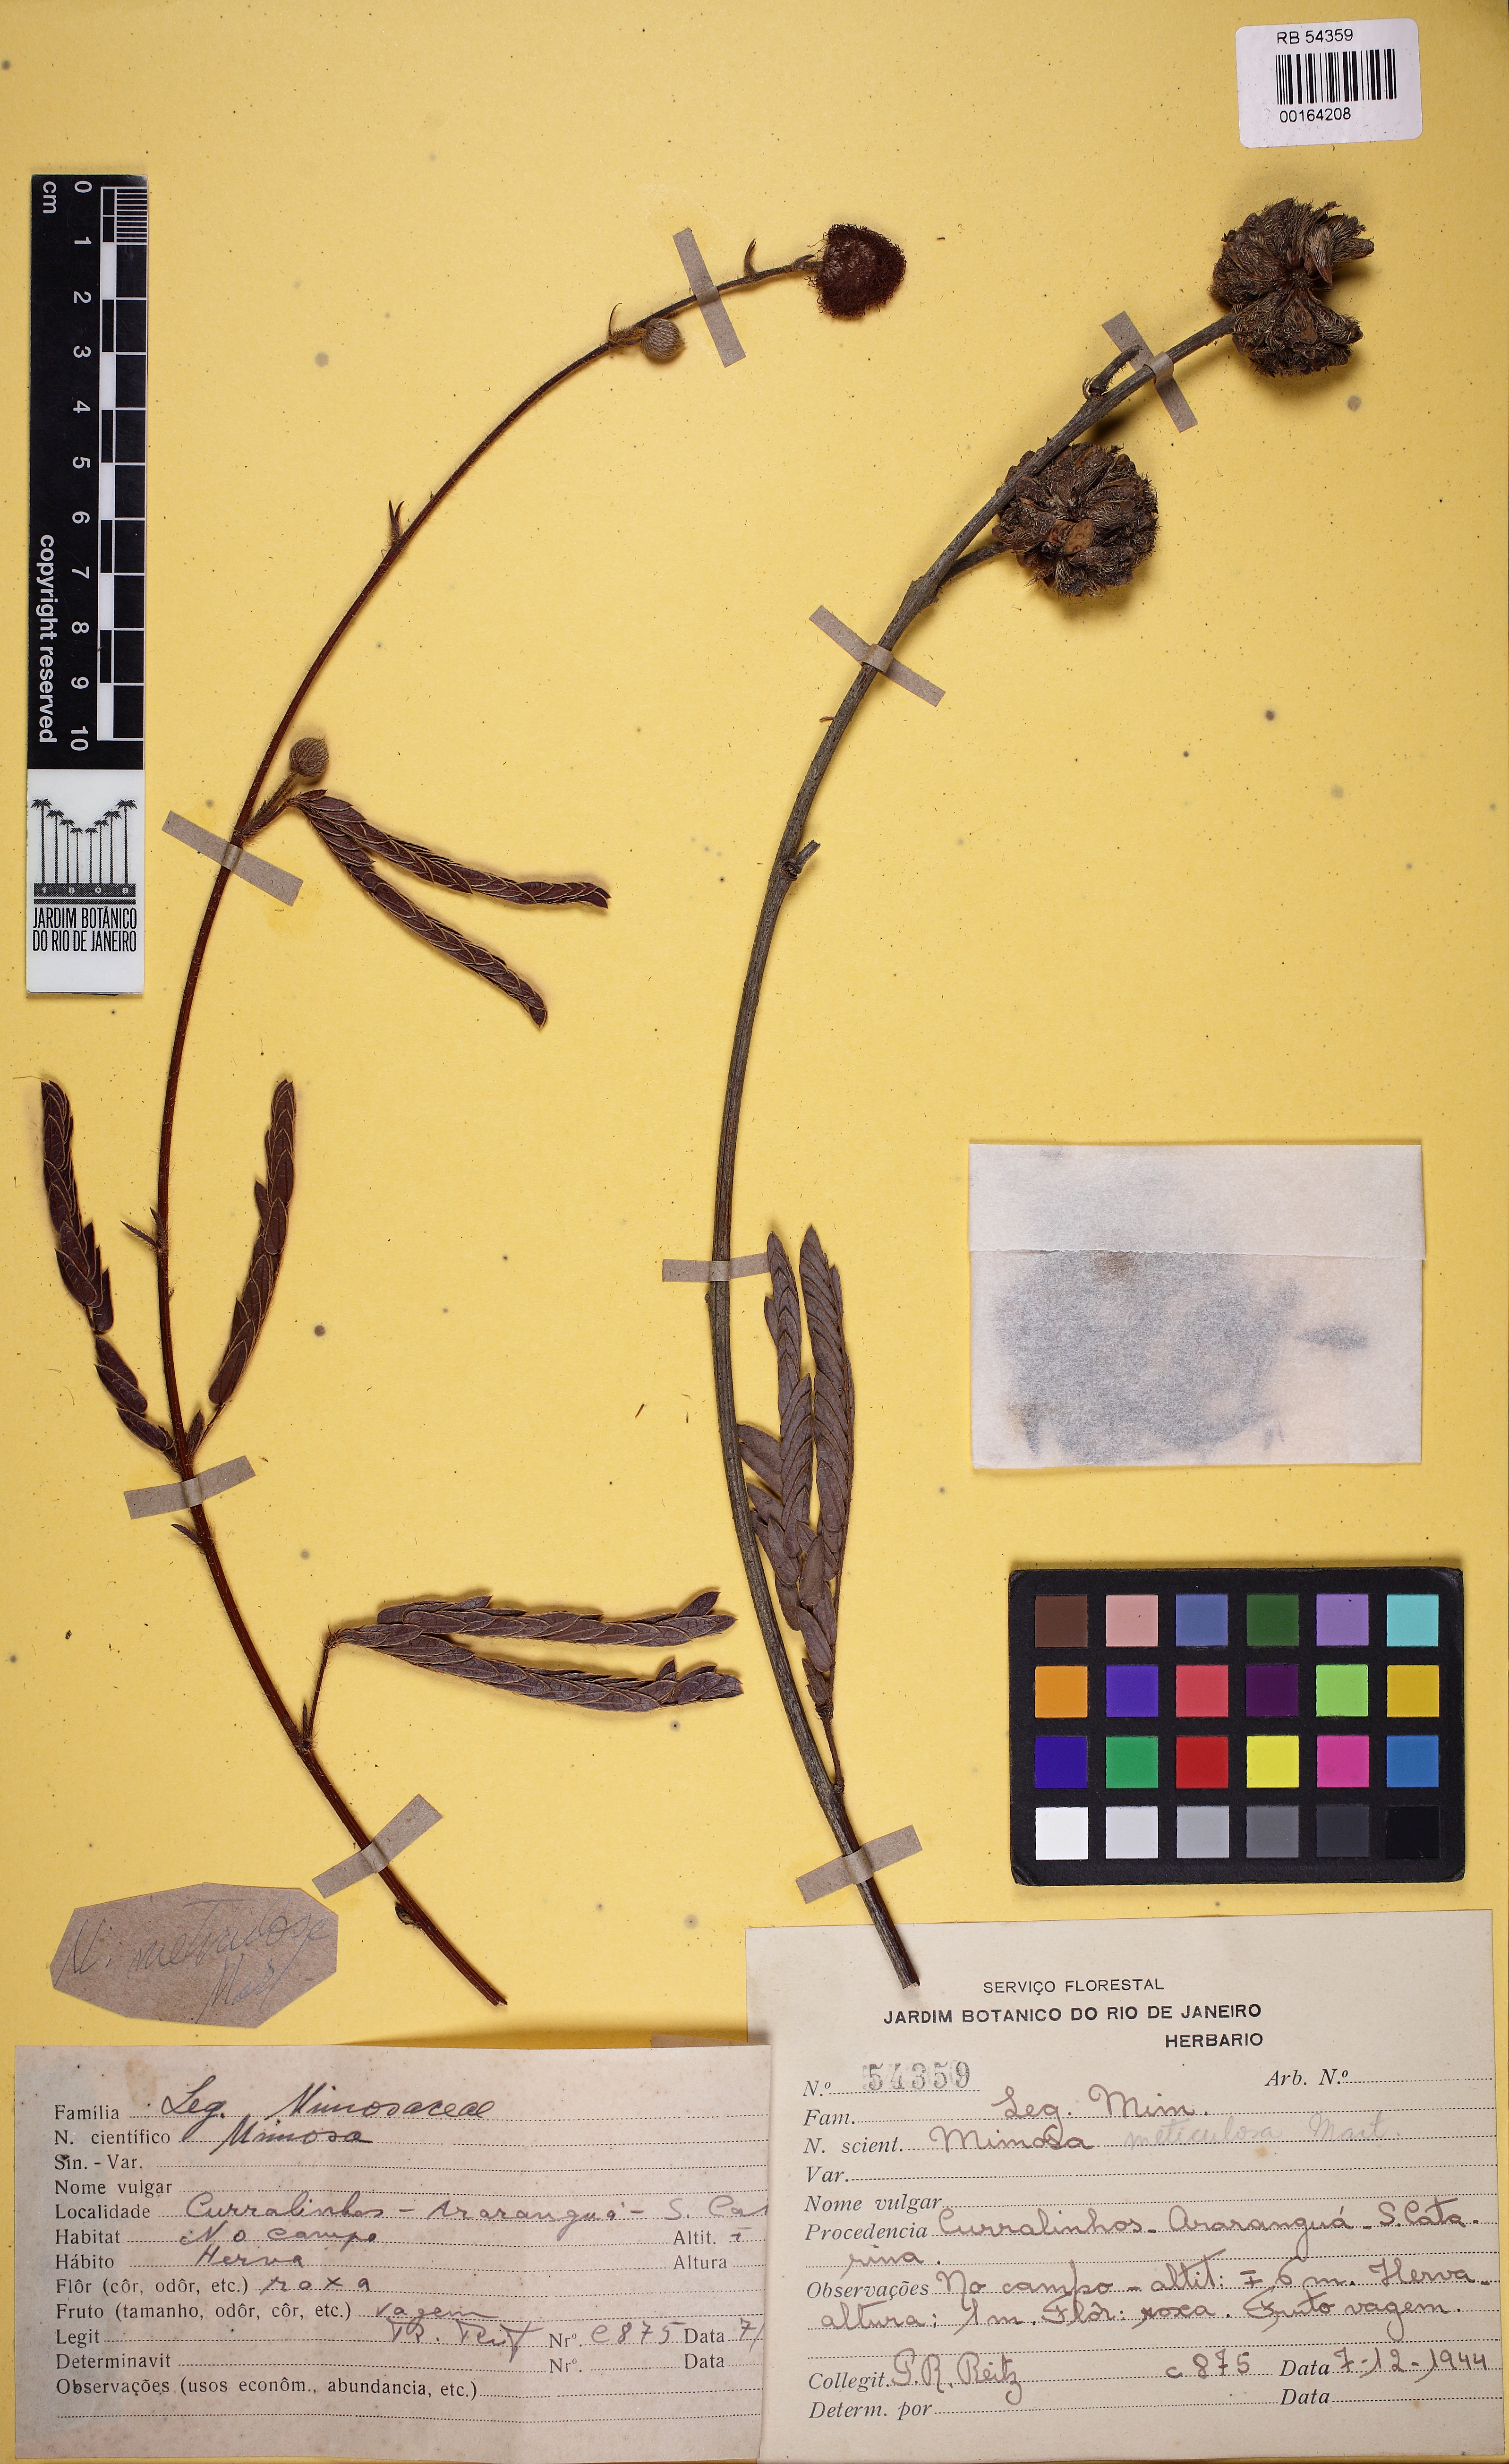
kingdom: Plantae
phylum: Tracheophyta
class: Magnoliopsida
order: Fabales
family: Fabaceae
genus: Mimosa
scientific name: Mimosa dolens
